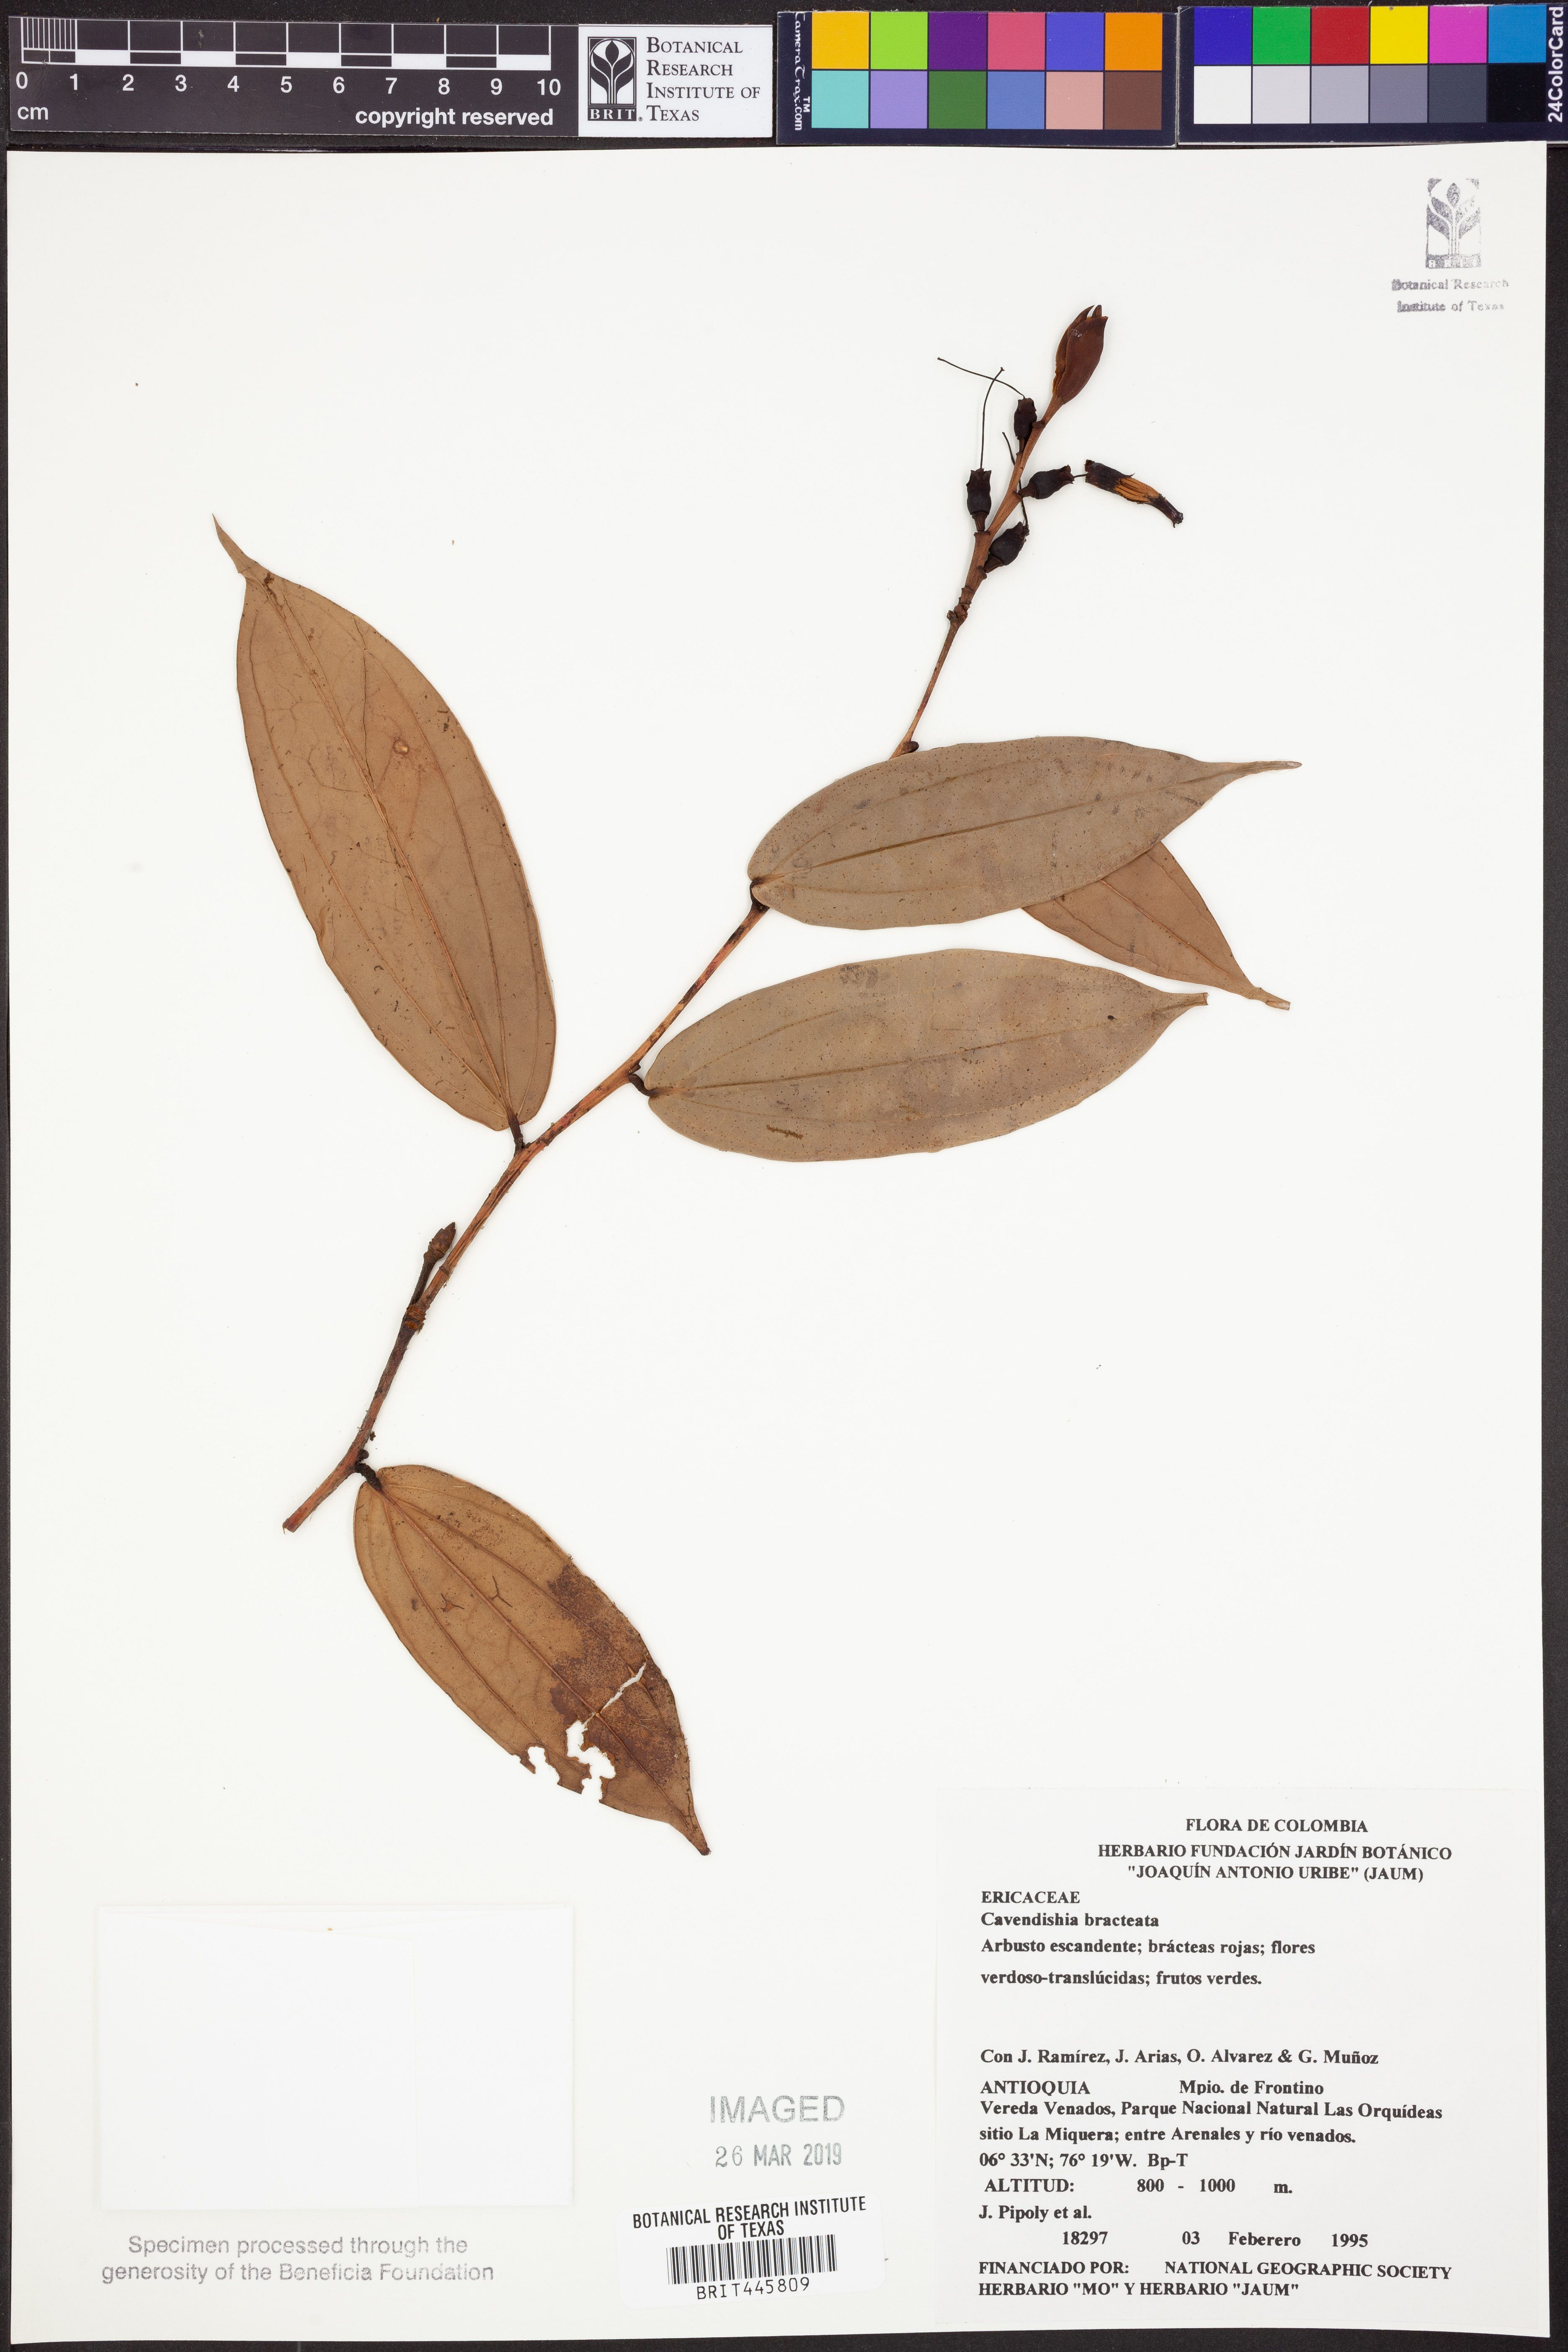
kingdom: Plantae
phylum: Tracheophyta
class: Magnoliopsida
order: Ericales
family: Ericaceae
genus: Cavendishia
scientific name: Cavendishia bracteata
